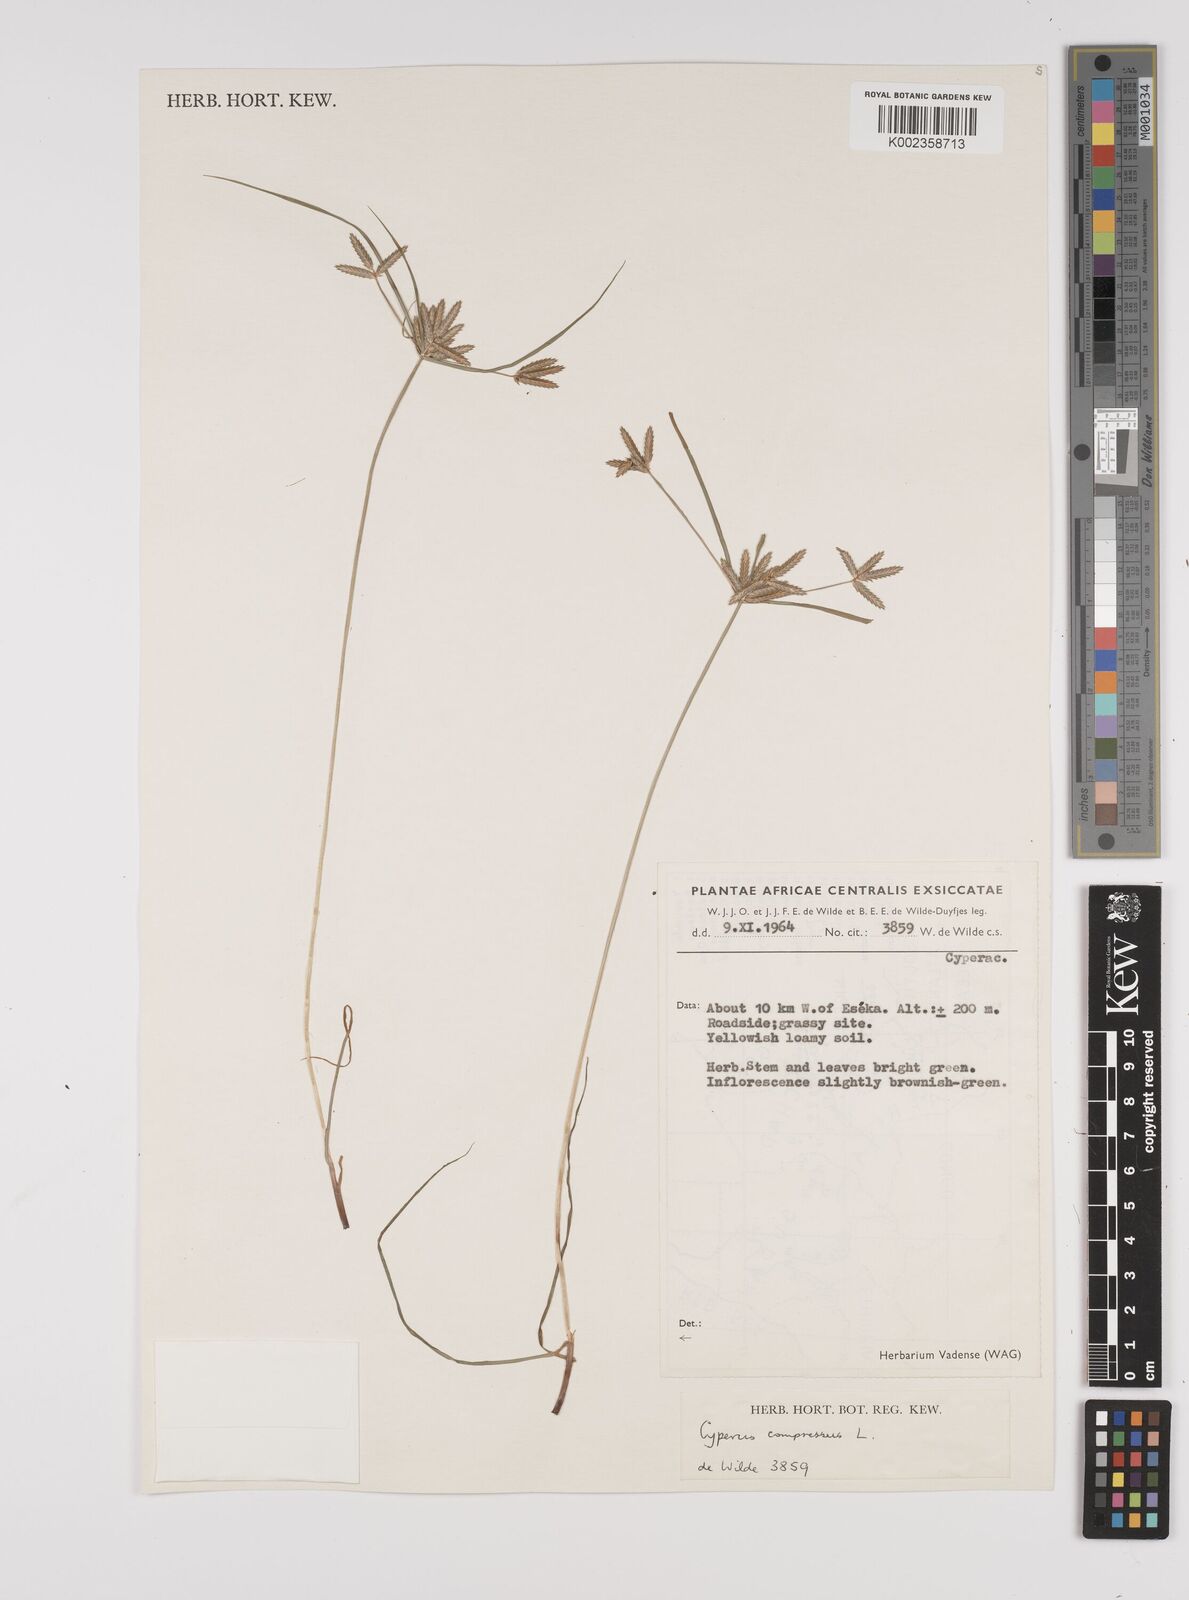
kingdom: Plantae
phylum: Tracheophyta
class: Liliopsida
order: Poales
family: Cyperaceae
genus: Cyperus
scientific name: Cyperus compressus
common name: Poorland flatsedge
